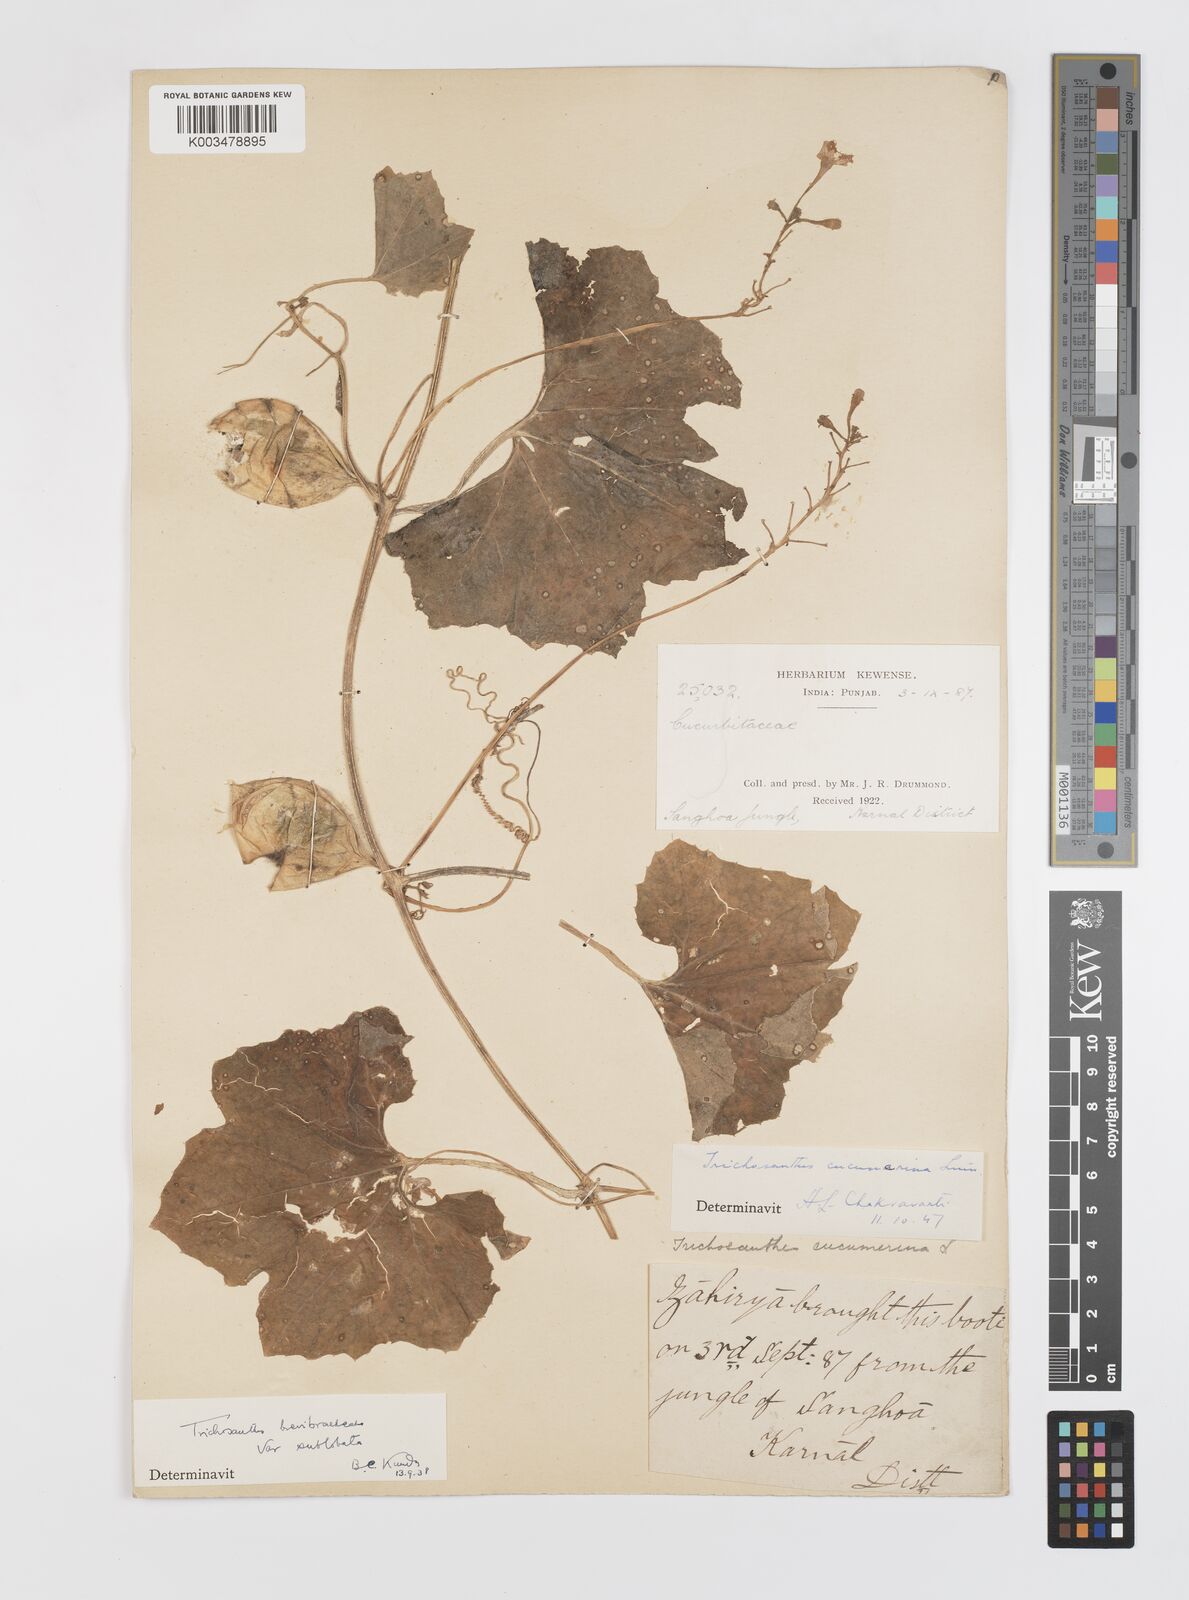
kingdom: Plantae
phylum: Tracheophyta
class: Magnoliopsida
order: Cucurbitales
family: Cucurbitaceae
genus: Trichosanthes
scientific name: Trichosanthes cucumerina
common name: Snakegourd
